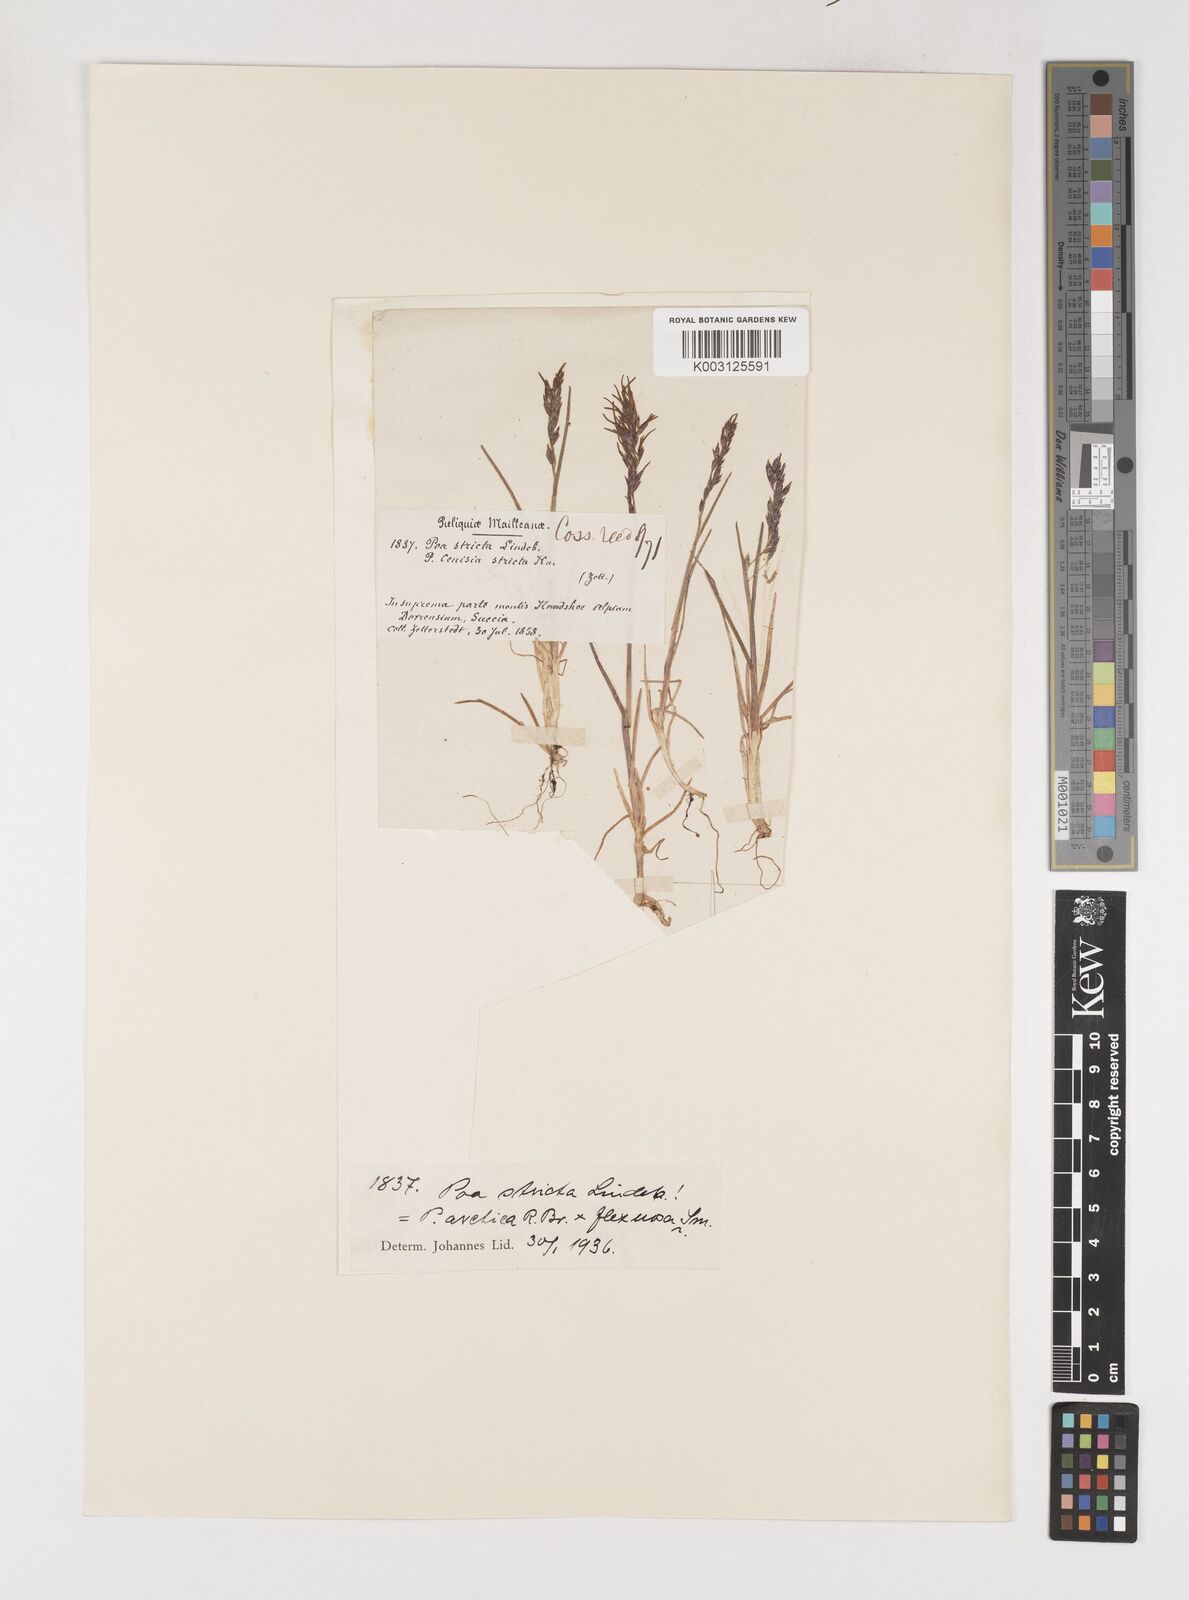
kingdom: Plantae
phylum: Tracheophyta
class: Liliopsida
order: Poales
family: Poaceae
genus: Poa
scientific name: Poa arctica
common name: Arctic bluegrass
